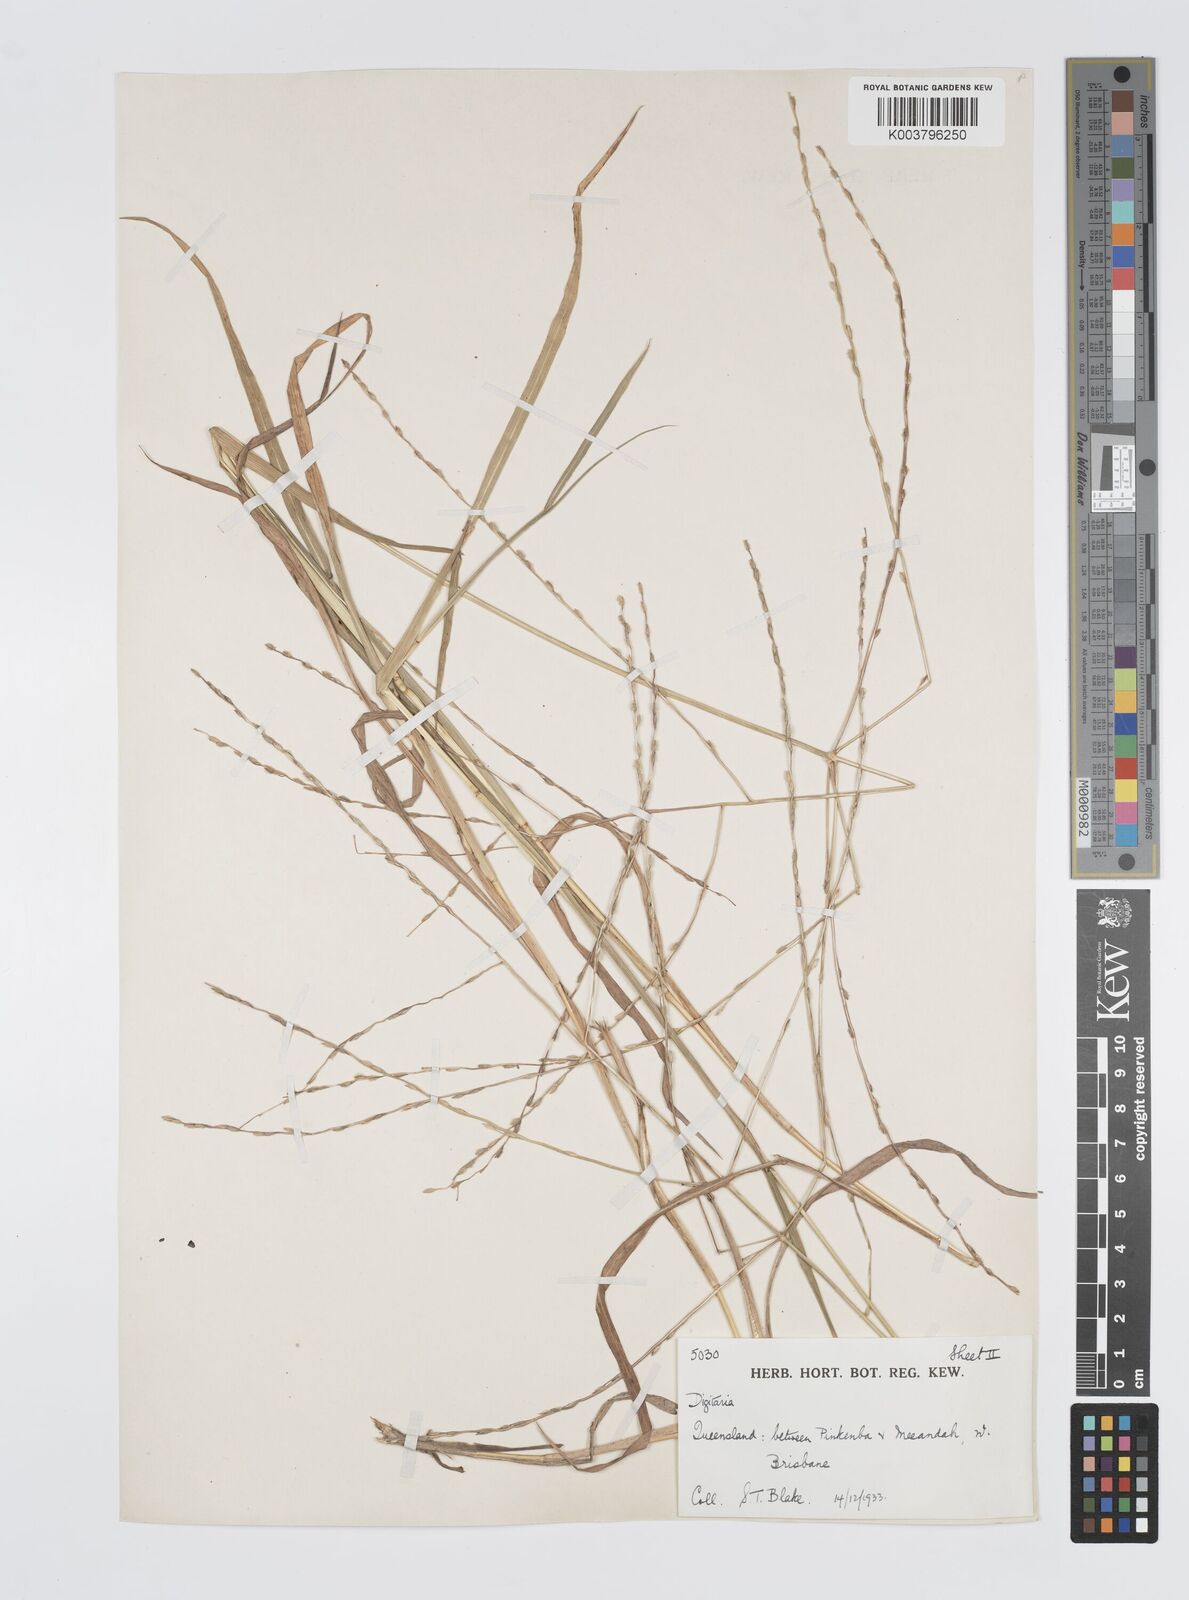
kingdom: Plantae
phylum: Tracheophyta
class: Liliopsida
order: Poales
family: Poaceae
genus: Digitaria
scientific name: Digitaria divaricatissima
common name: Crabgrass
